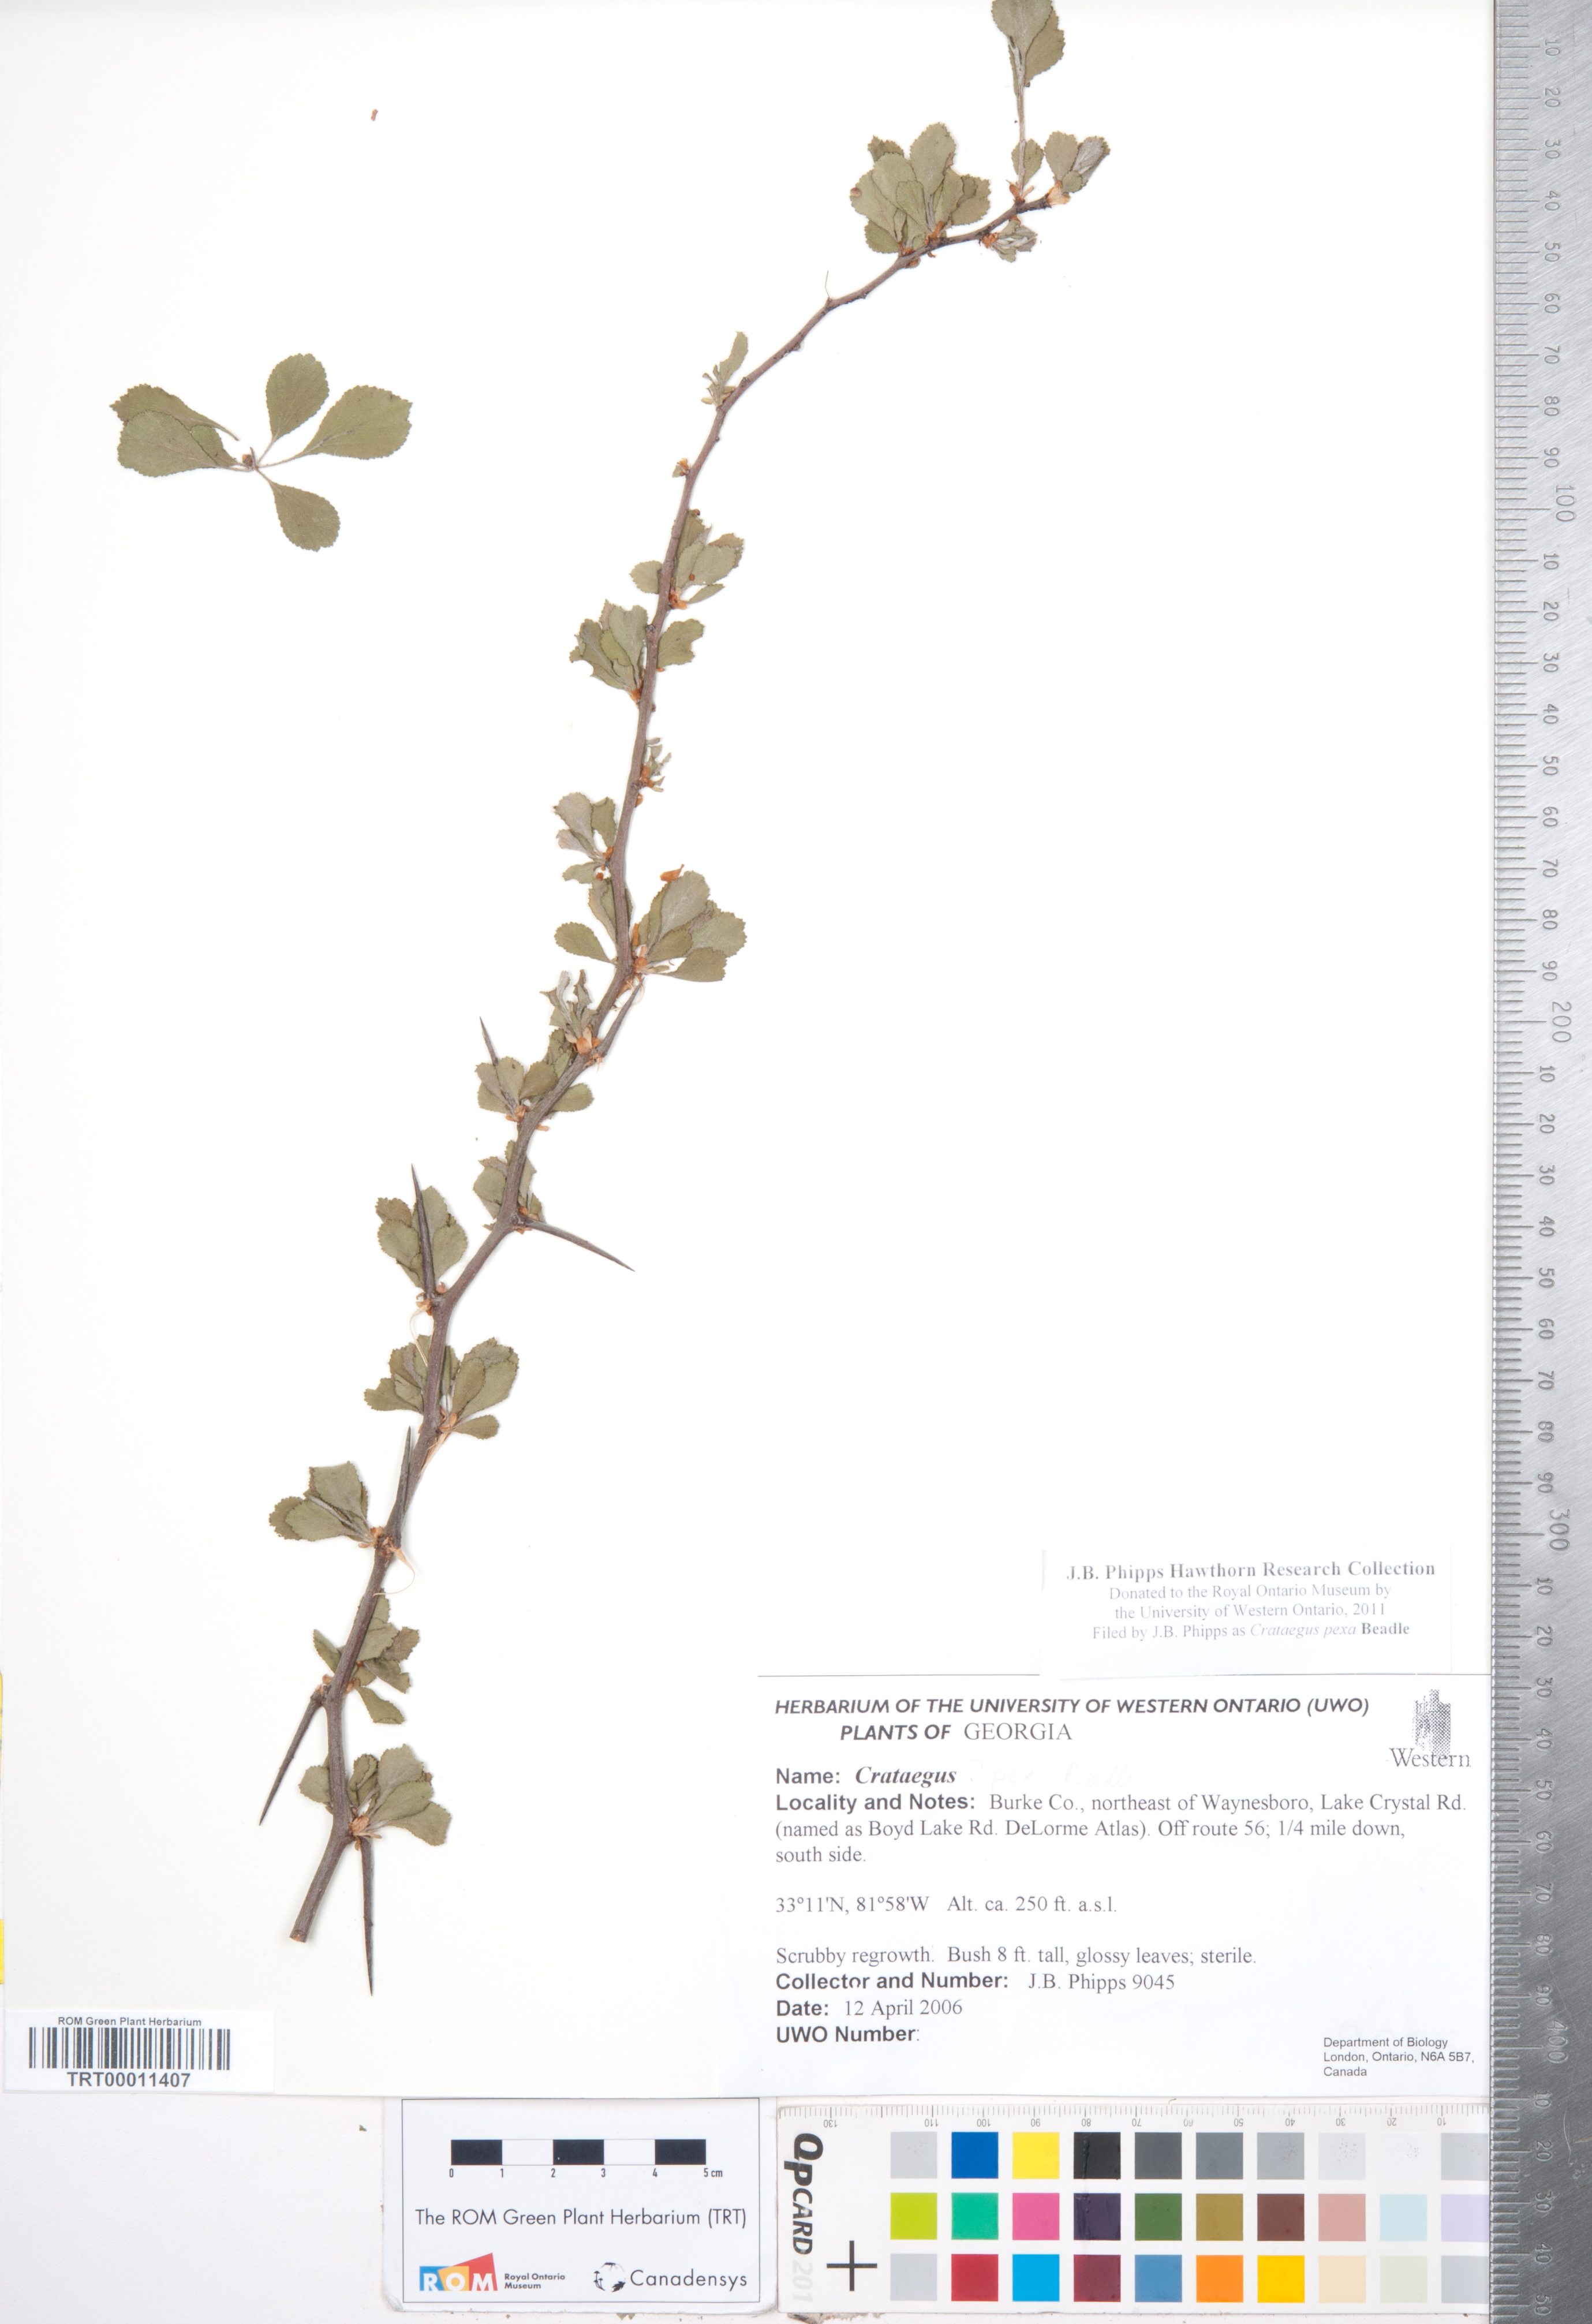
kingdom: Plantae
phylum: Tracheophyta
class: Magnoliopsida
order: Rosales
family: Rosaceae
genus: Crataegus
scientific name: Crataegus munda
